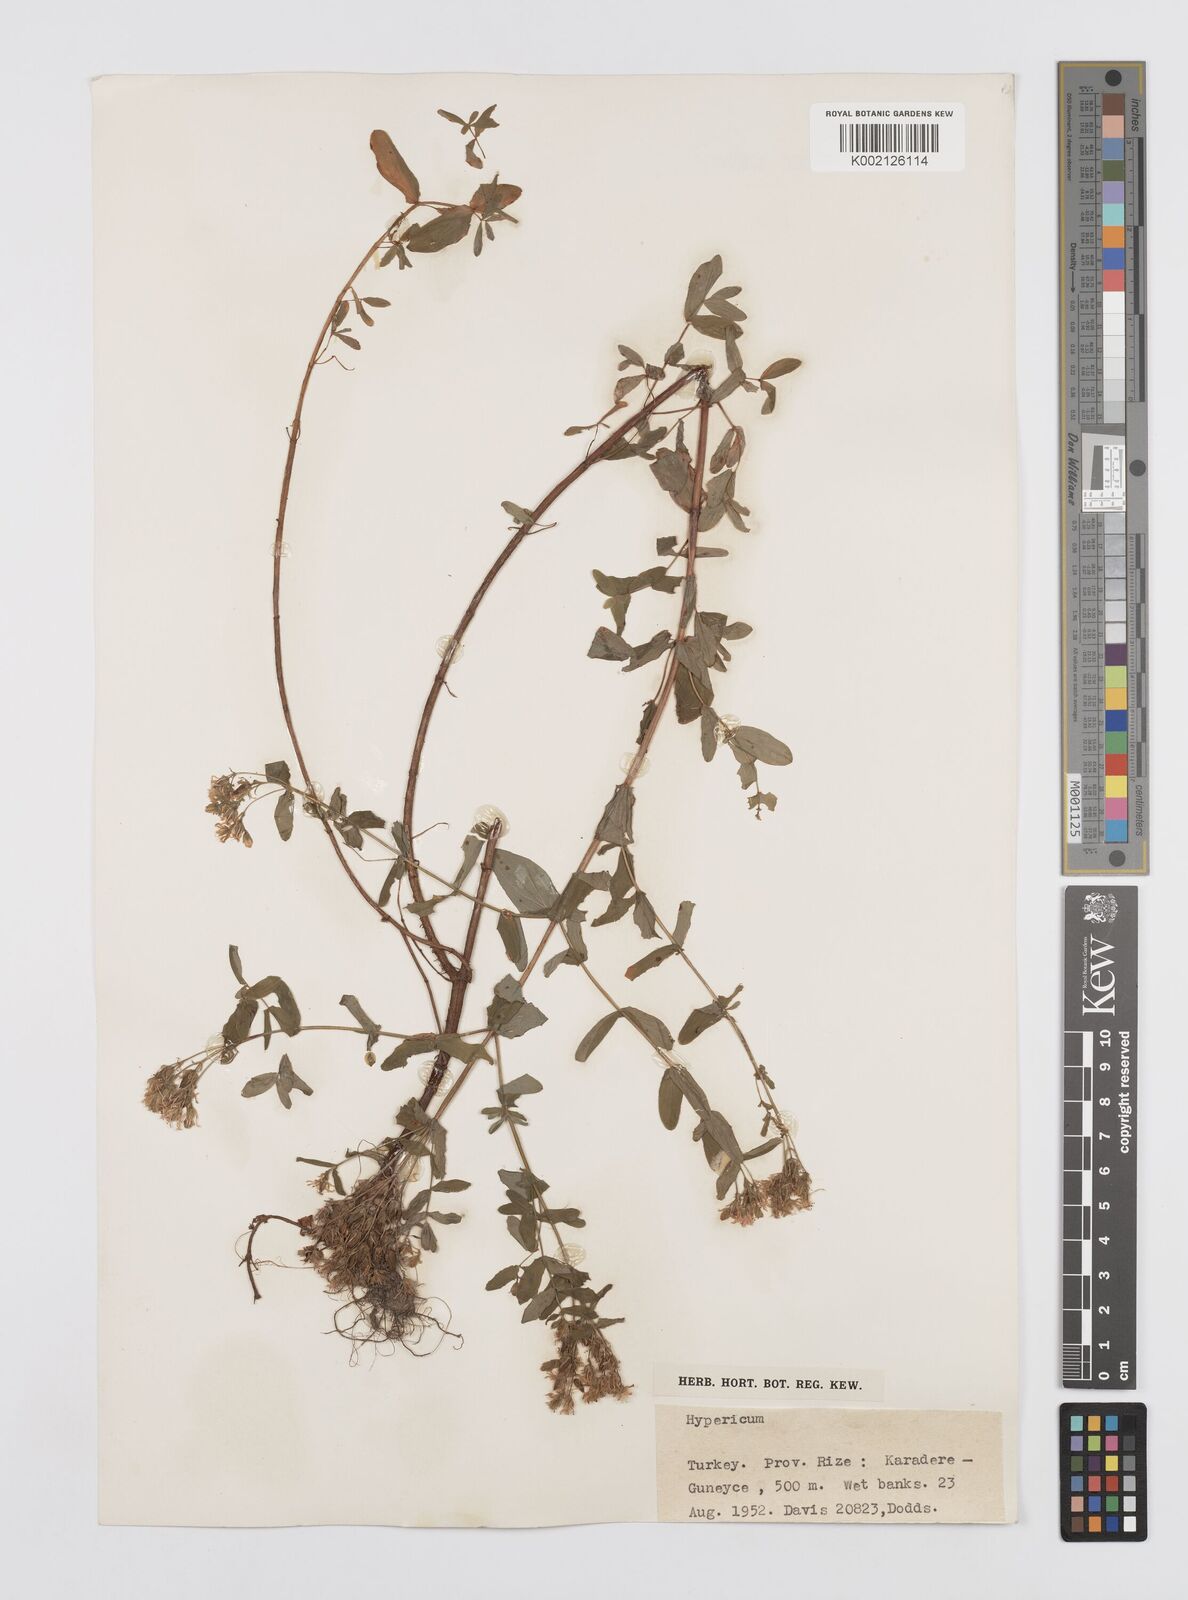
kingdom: Plantae
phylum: Tracheophyta
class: Magnoliopsida
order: Malpighiales
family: Hypericaceae
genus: Hypericum
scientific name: Hypericum tetrapterum
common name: Square-stalked st. john's-wort
